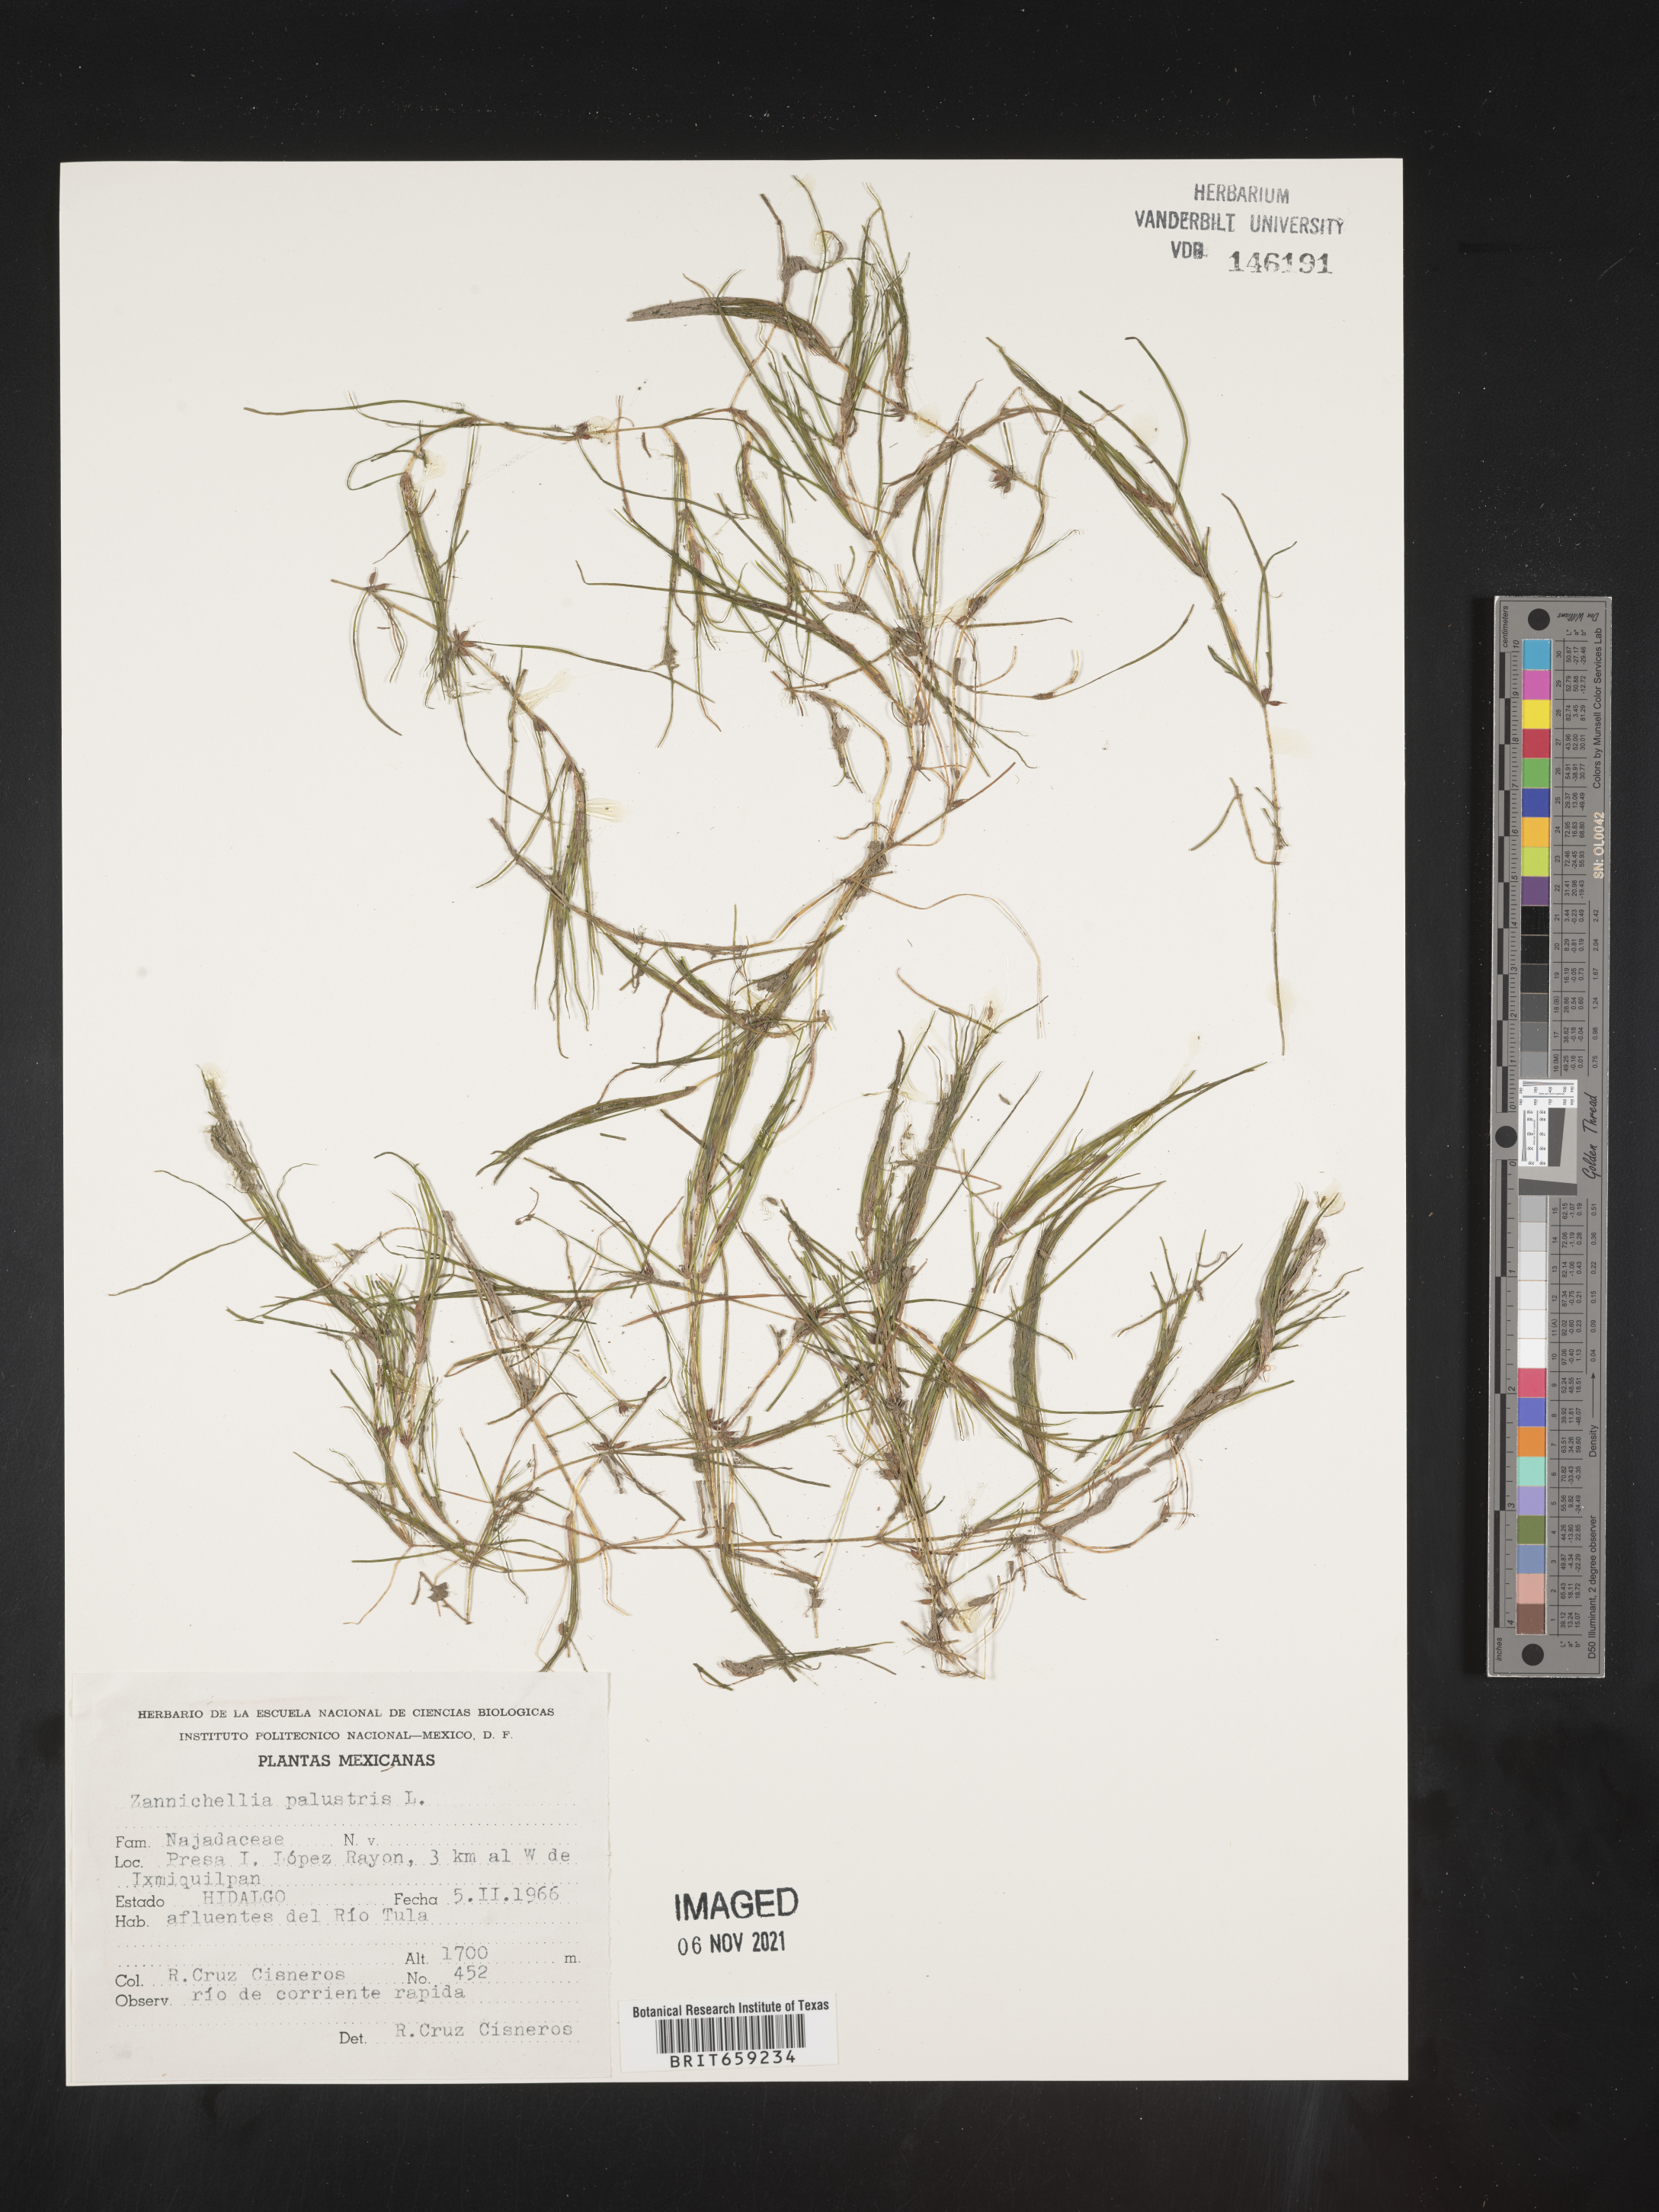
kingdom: Plantae
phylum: Tracheophyta
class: Liliopsida
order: Alismatales
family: Potamogetonaceae
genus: Zannichellia
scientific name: Zannichellia
